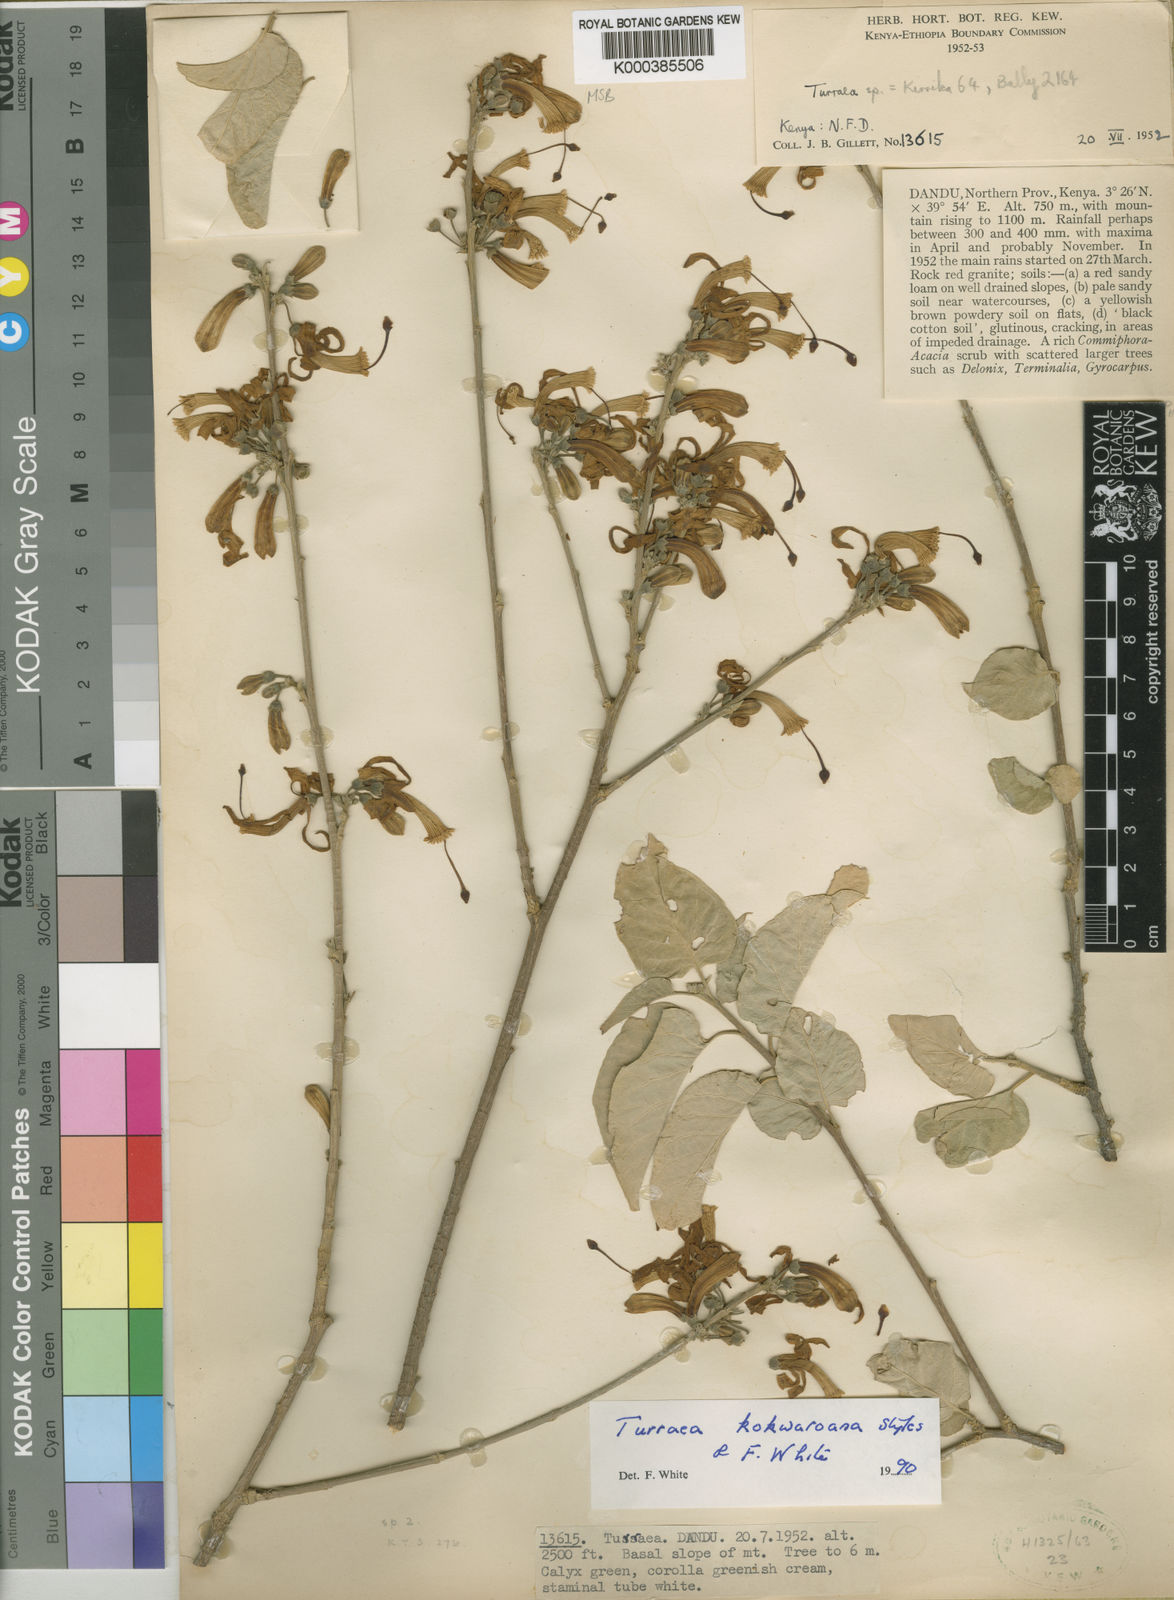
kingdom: Plantae
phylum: Tracheophyta
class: Magnoliopsida
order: Sapindales
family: Meliaceae
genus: Turraea
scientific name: Turraea kokwaroana
